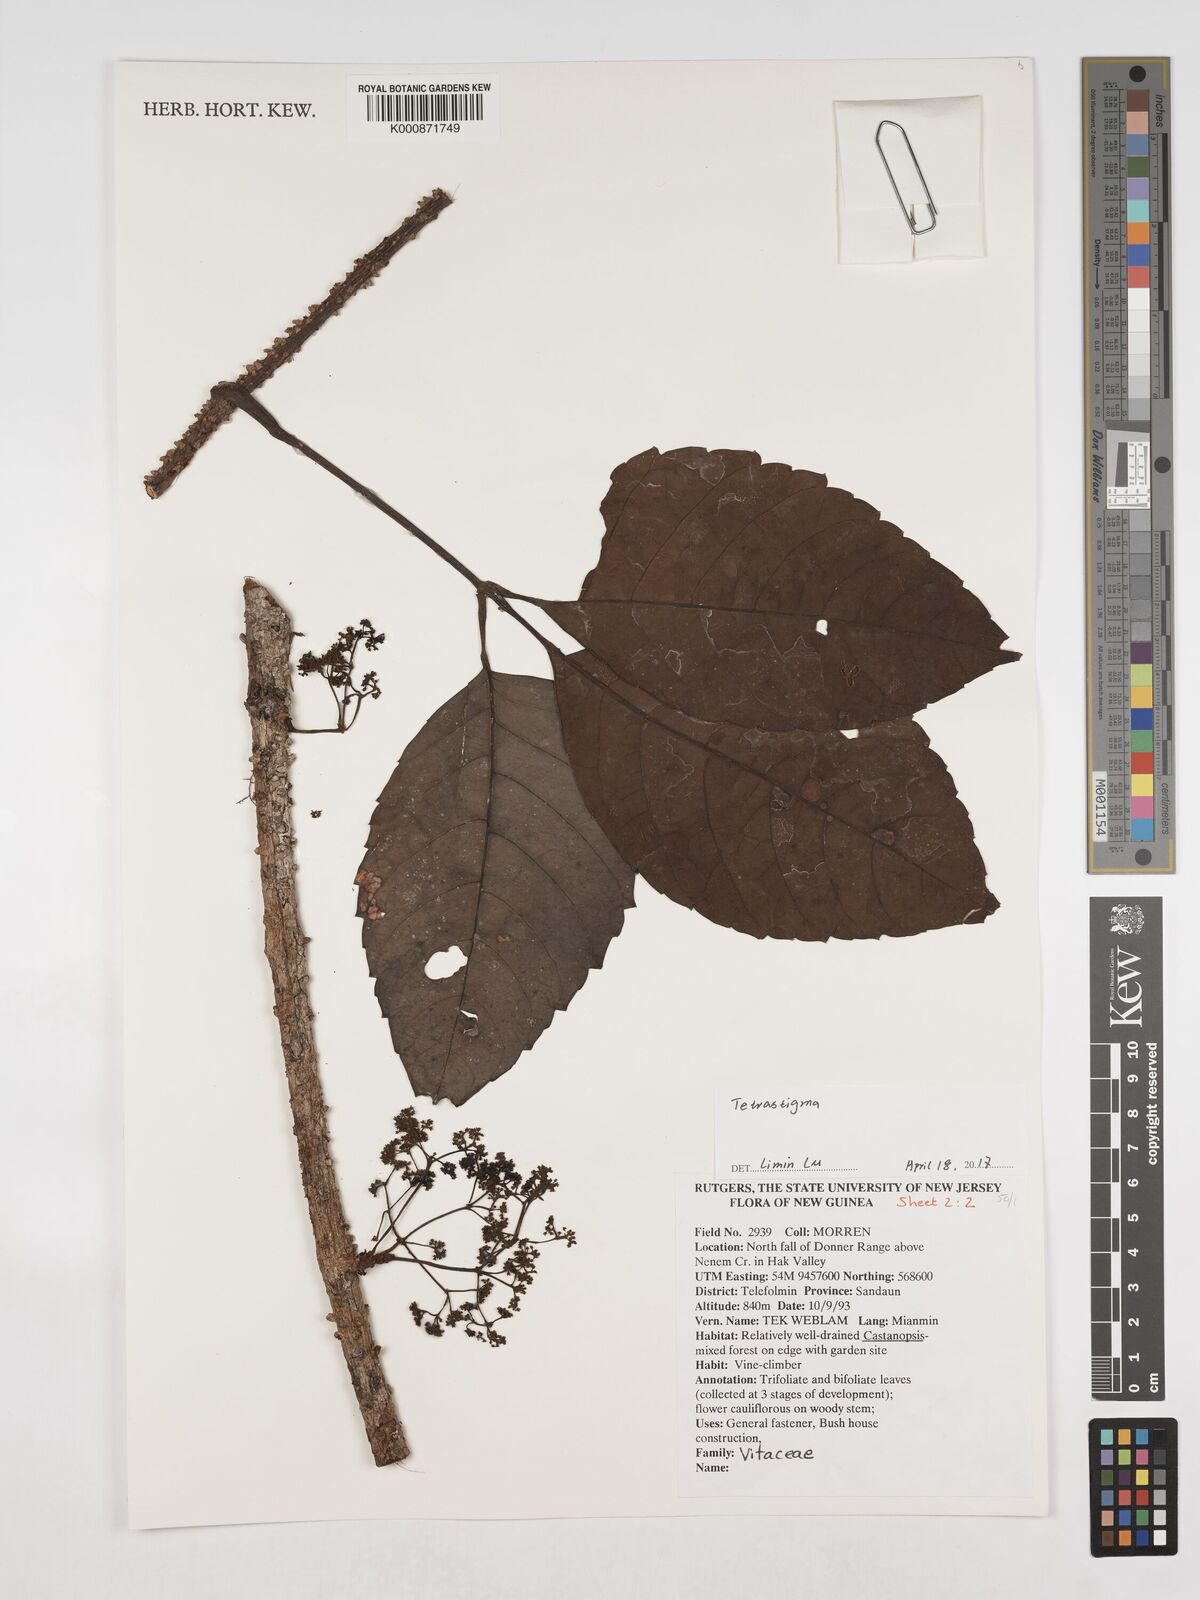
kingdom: Plantae
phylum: Tracheophyta
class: Magnoliopsida
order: Vitales
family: Vitaceae
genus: Tetrastigma
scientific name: Tetrastigma
